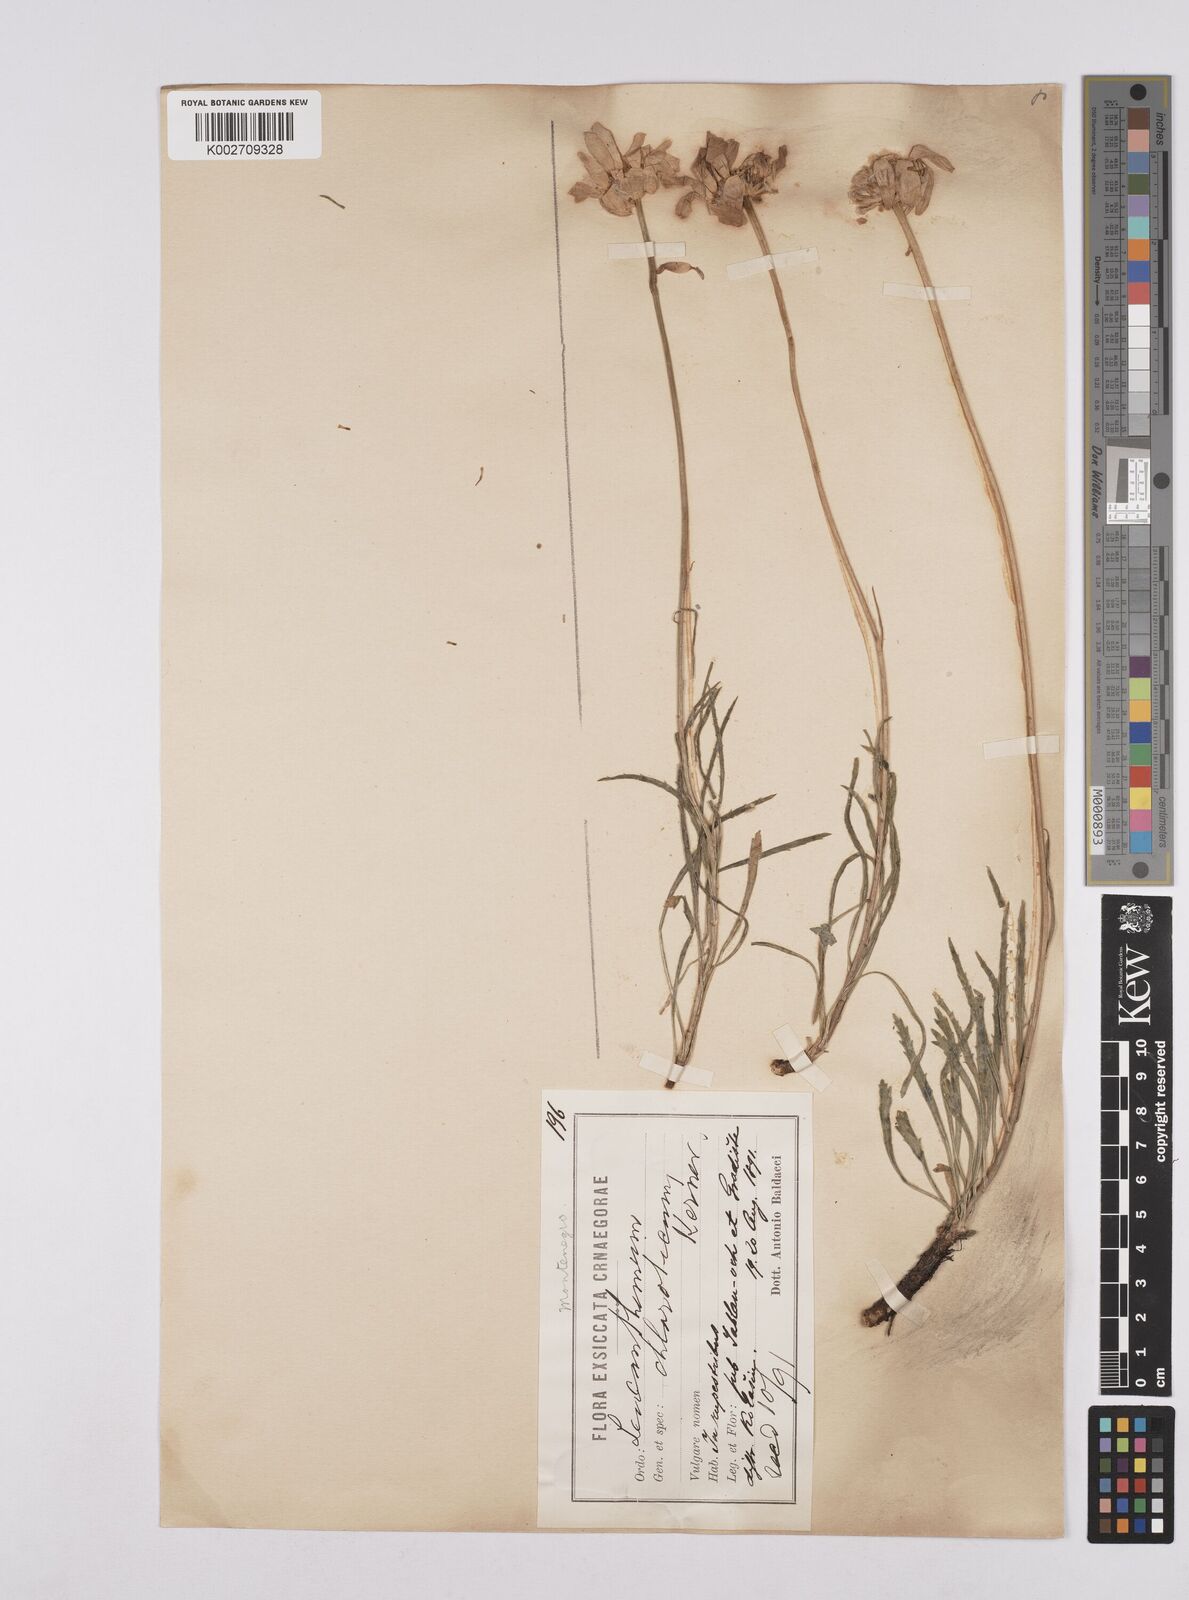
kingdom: Plantae
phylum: Tracheophyta
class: Magnoliopsida
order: Asterales
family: Asteraceae
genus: Leucanthemum
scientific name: Leucanthemum chloroticum
